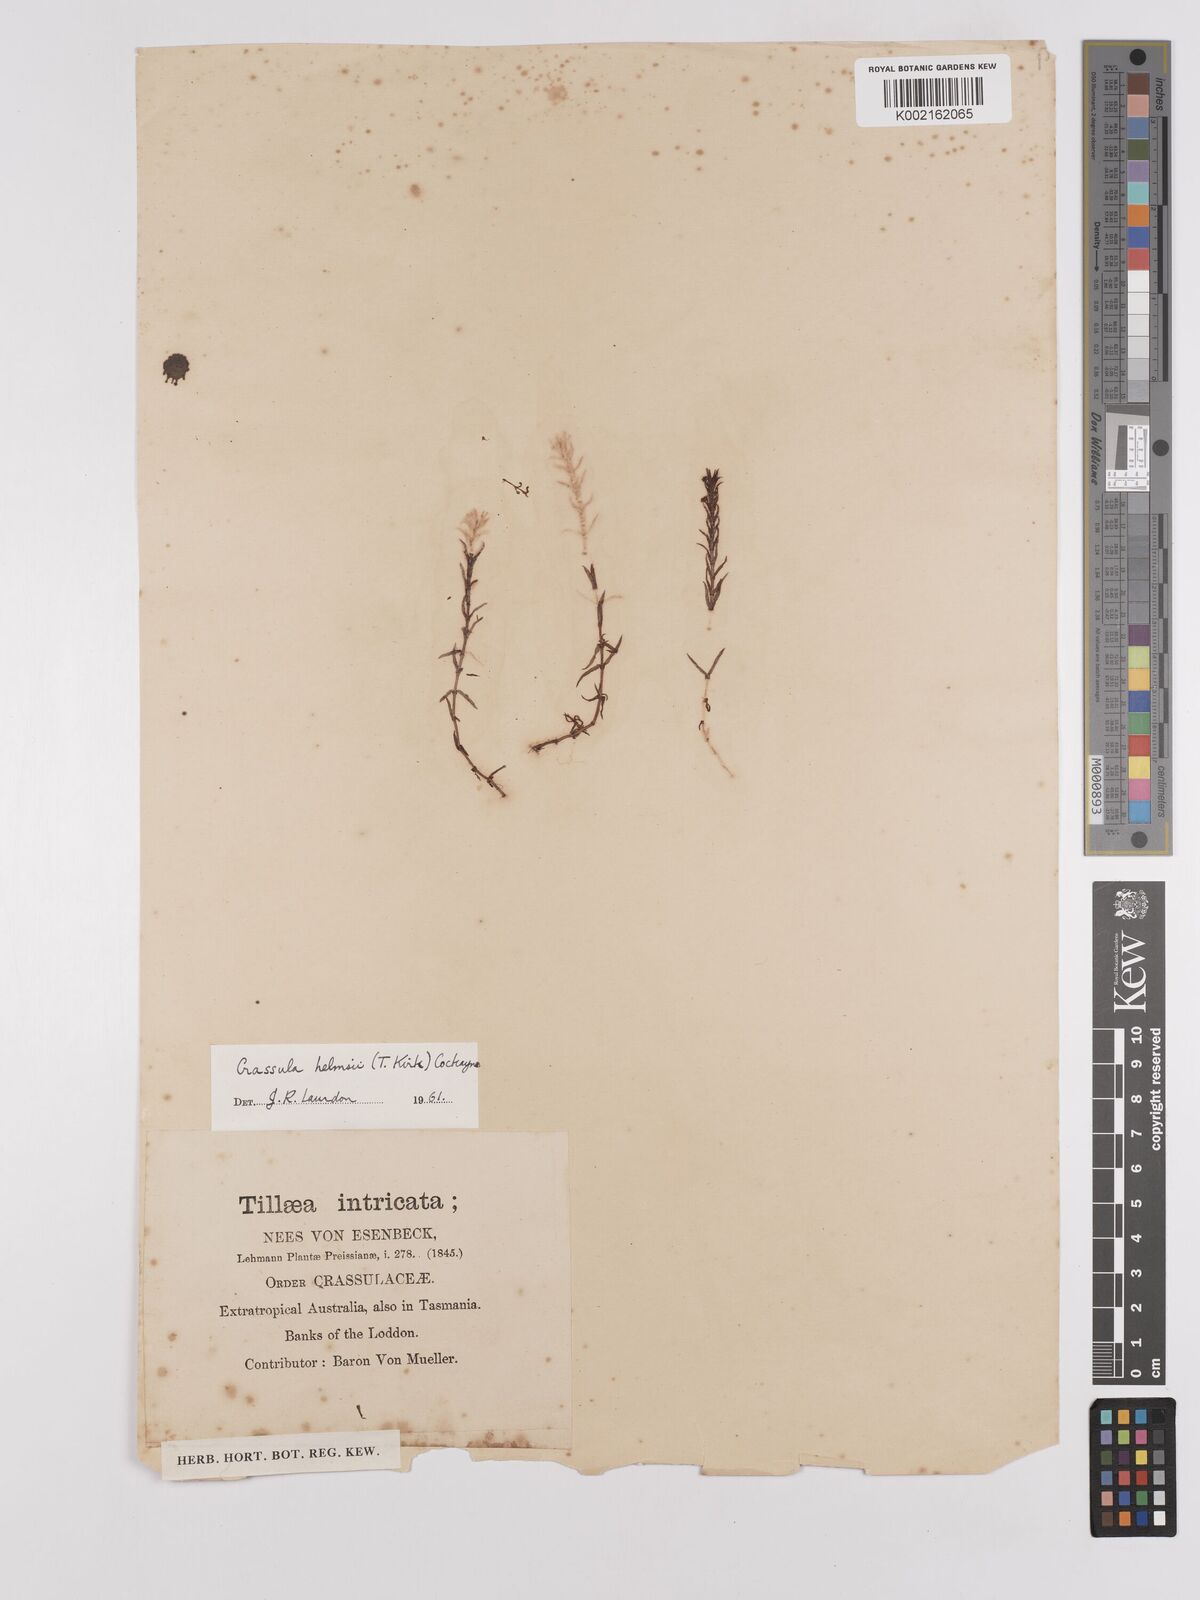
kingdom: Plantae
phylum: Tracheophyta
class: Magnoliopsida
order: Saxifragales
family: Crassulaceae
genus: Crassula
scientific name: Crassula helmsii
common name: New zealand pigmyweed
